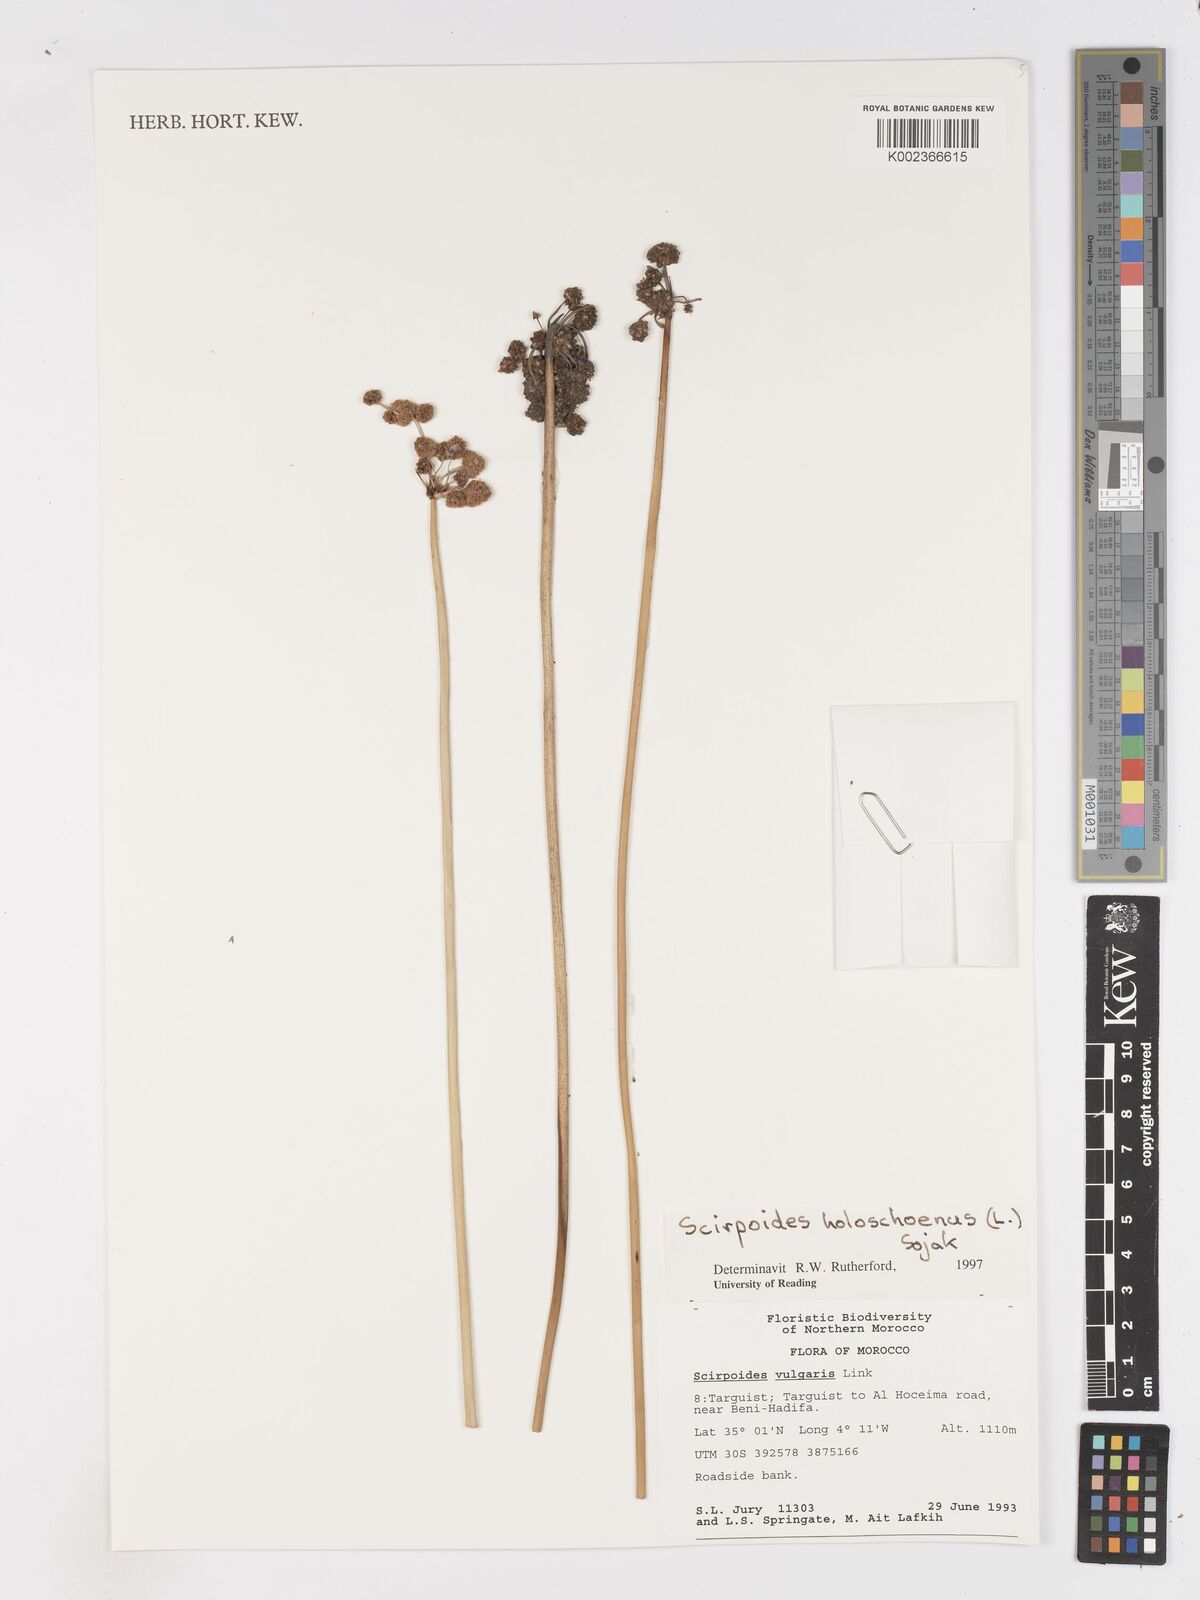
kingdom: Plantae
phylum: Tracheophyta
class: Liliopsida
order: Poales
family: Cyperaceae
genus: Scirpoides
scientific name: Scirpoides holoschoenus
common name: Round-headed club-rush
